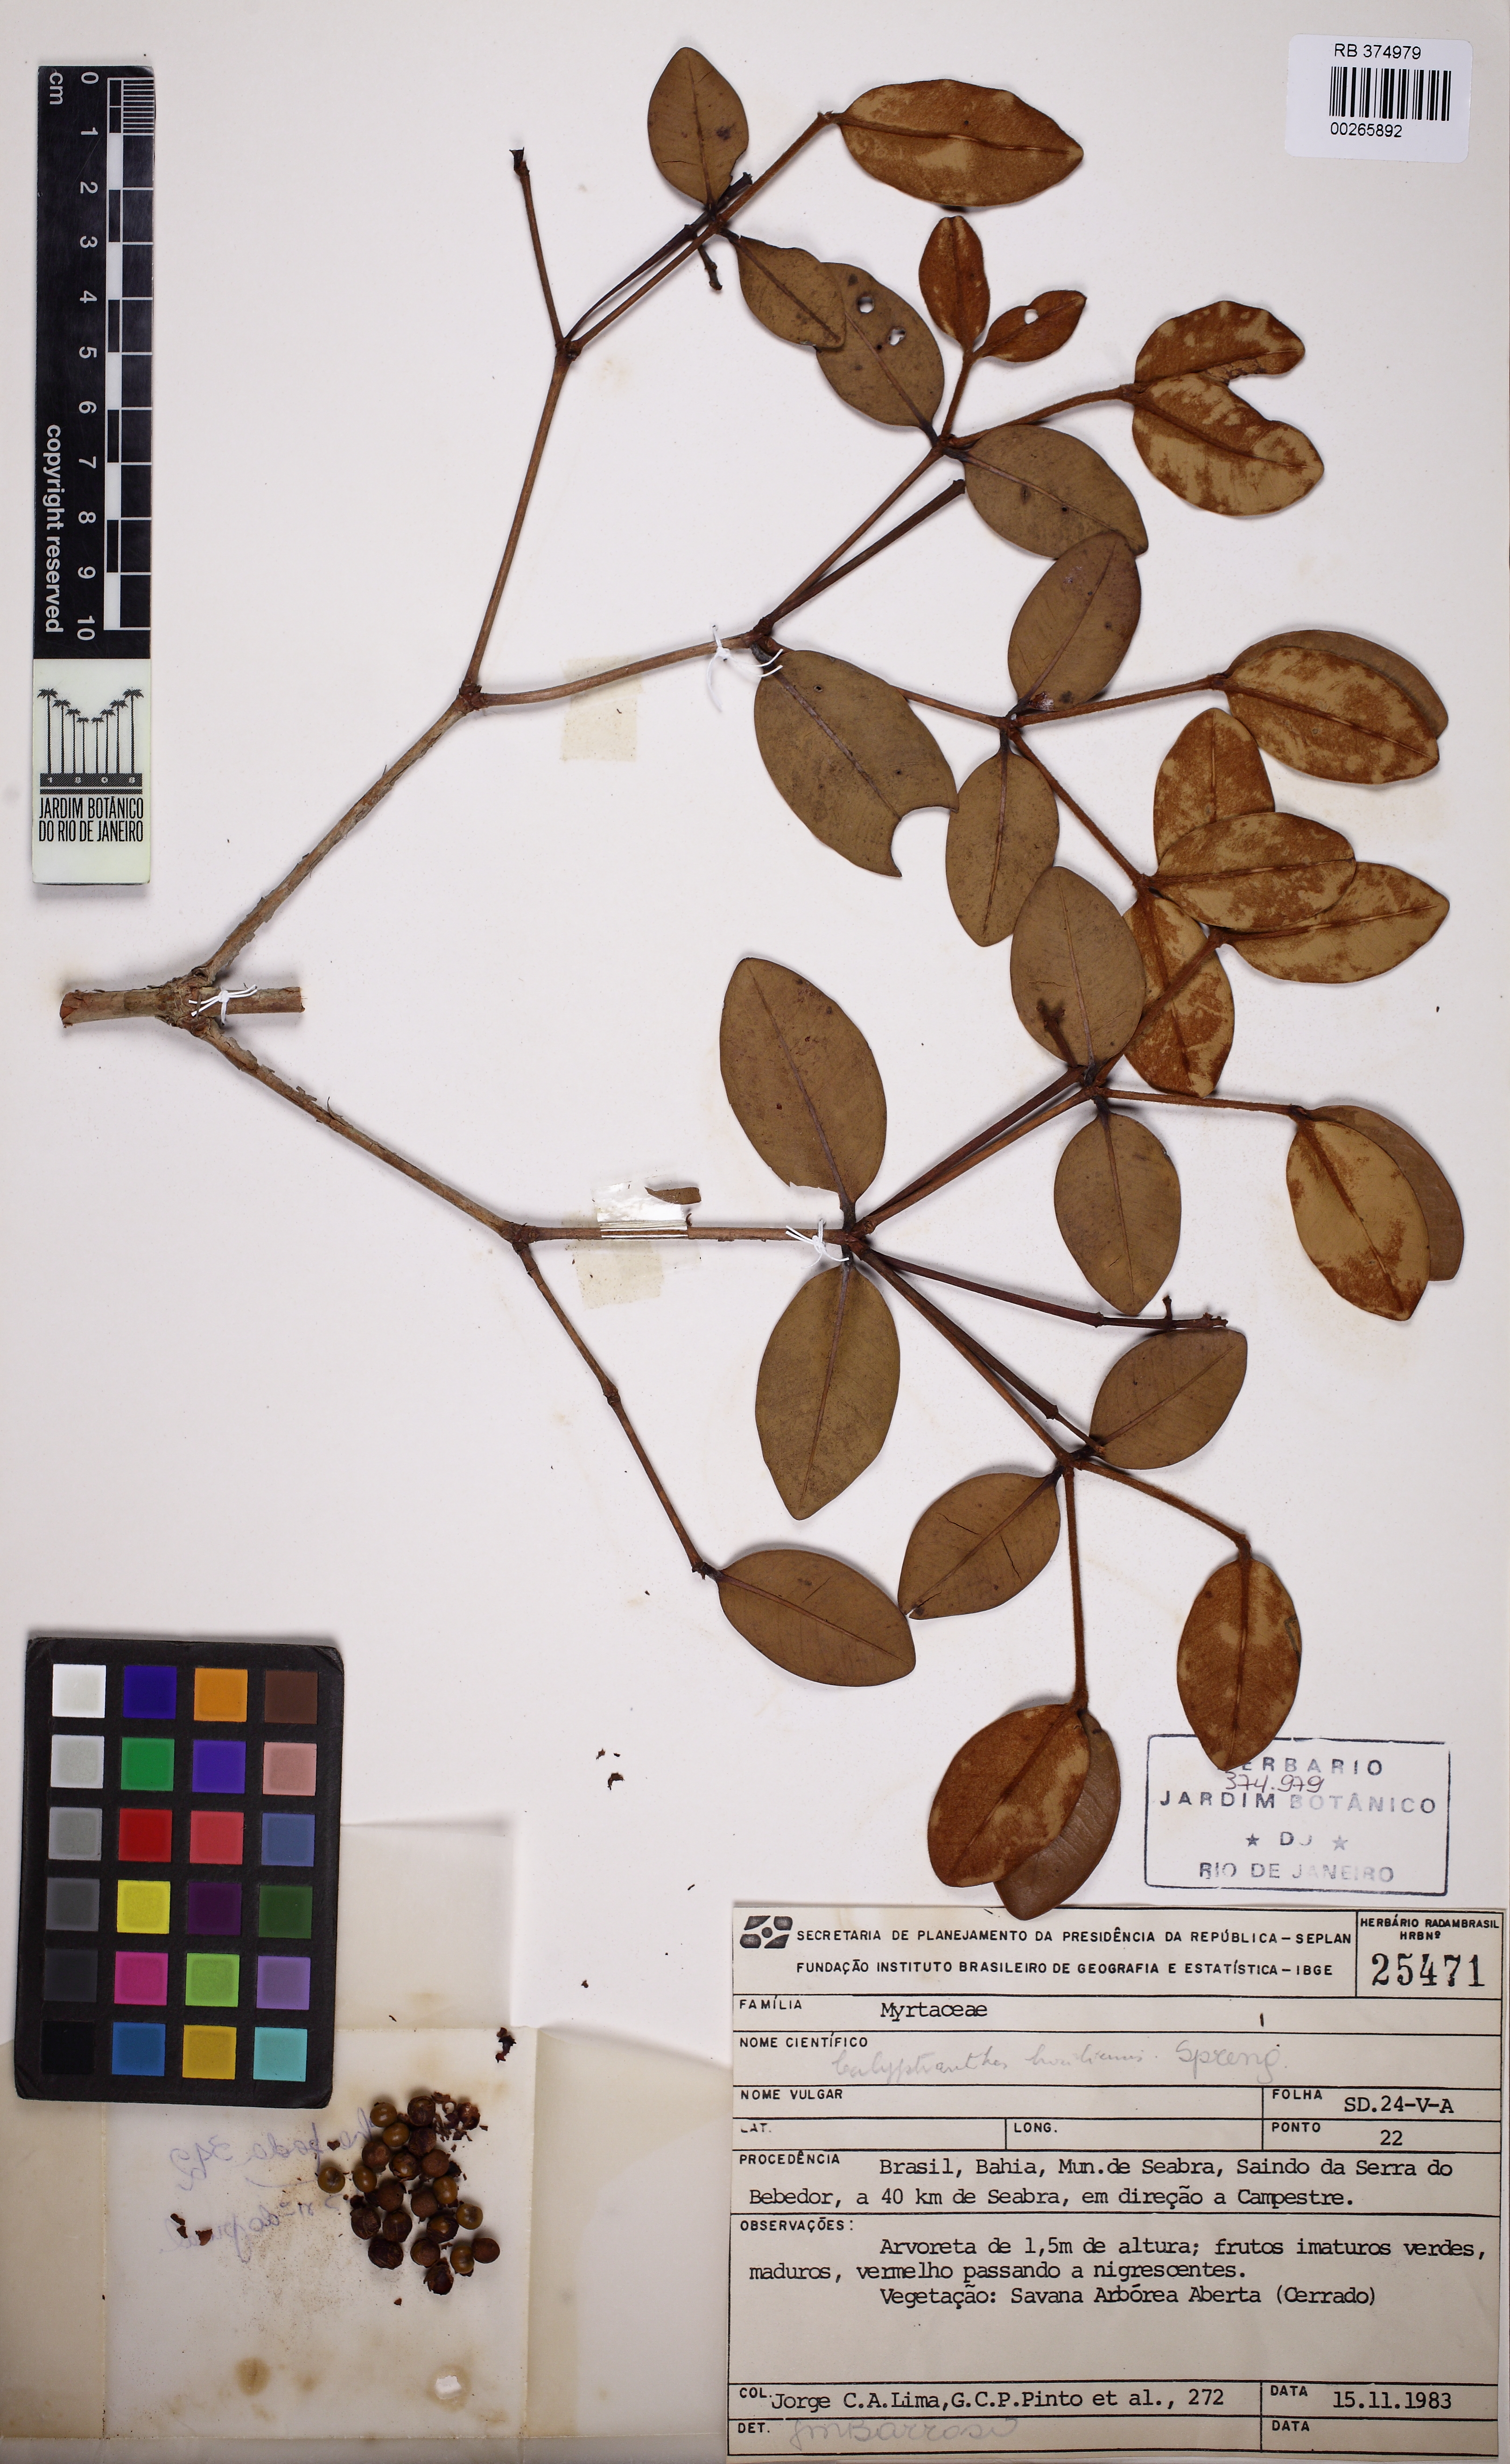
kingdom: Plantae
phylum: Tracheophyta
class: Magnoliopsida
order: Myrtales
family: Myrtaceae
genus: Myrcia
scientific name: Myrcia neobrasiliensis
